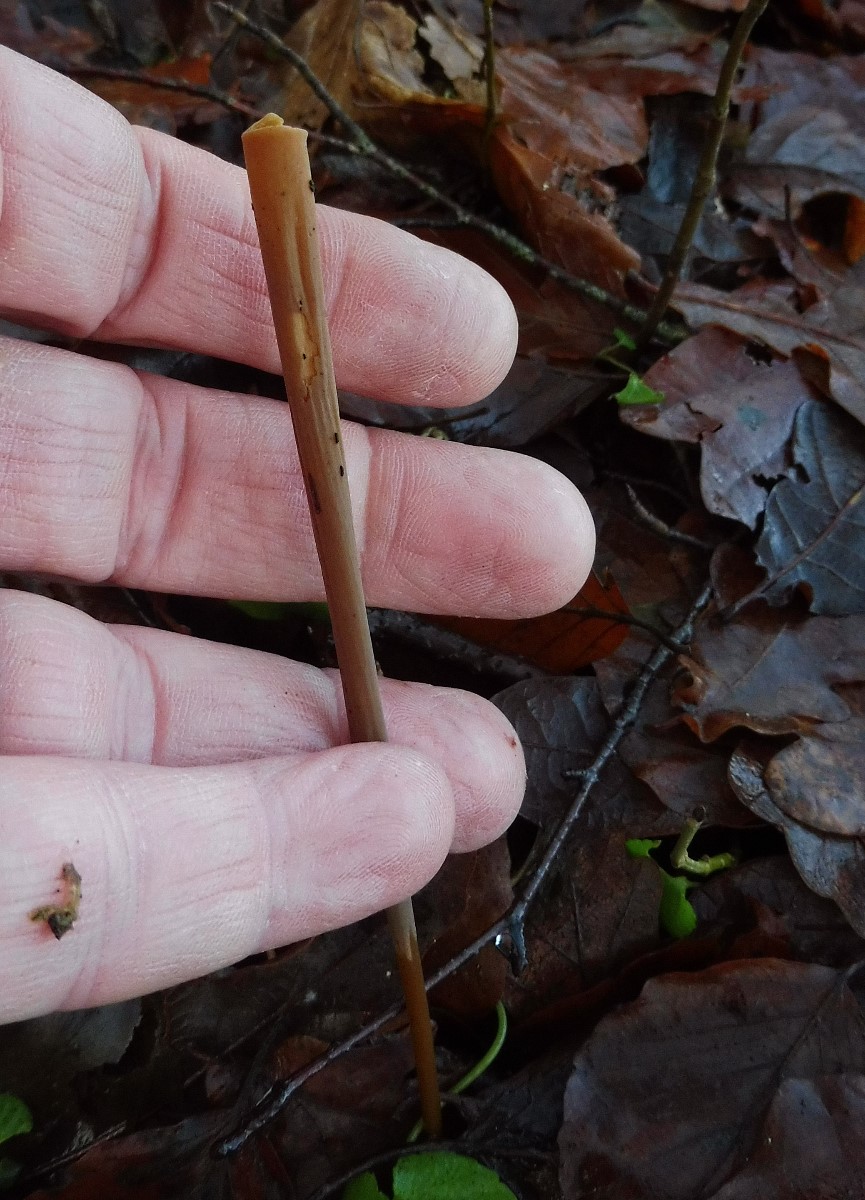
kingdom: Fungi
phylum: Basidiomycota
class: Agaricomycetes
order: Agaricales
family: Typhulaceae
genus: Typhula
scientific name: Typhula fistulosa
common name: pibet rørkølle
